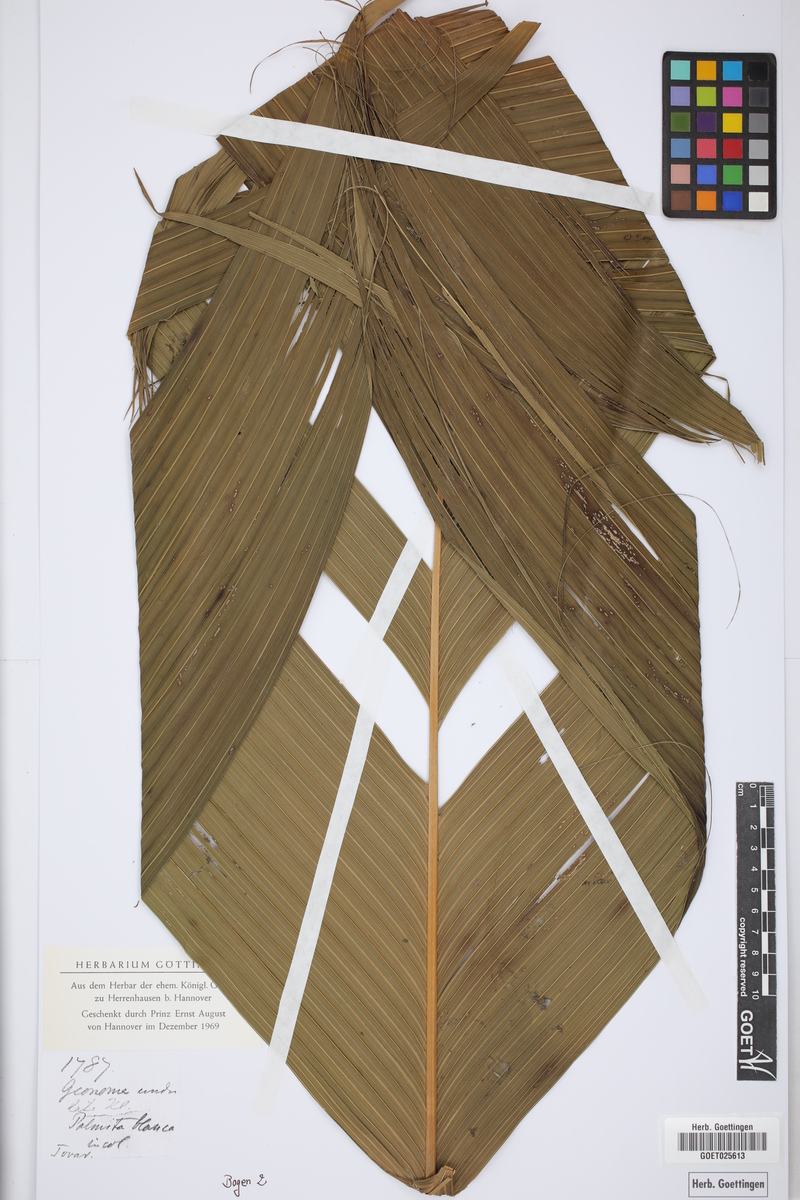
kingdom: Plantae
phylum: Tracheophyta
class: Liliopsida
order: Arecales
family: Arecaceae
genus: Geonoma
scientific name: Geonoma undata
